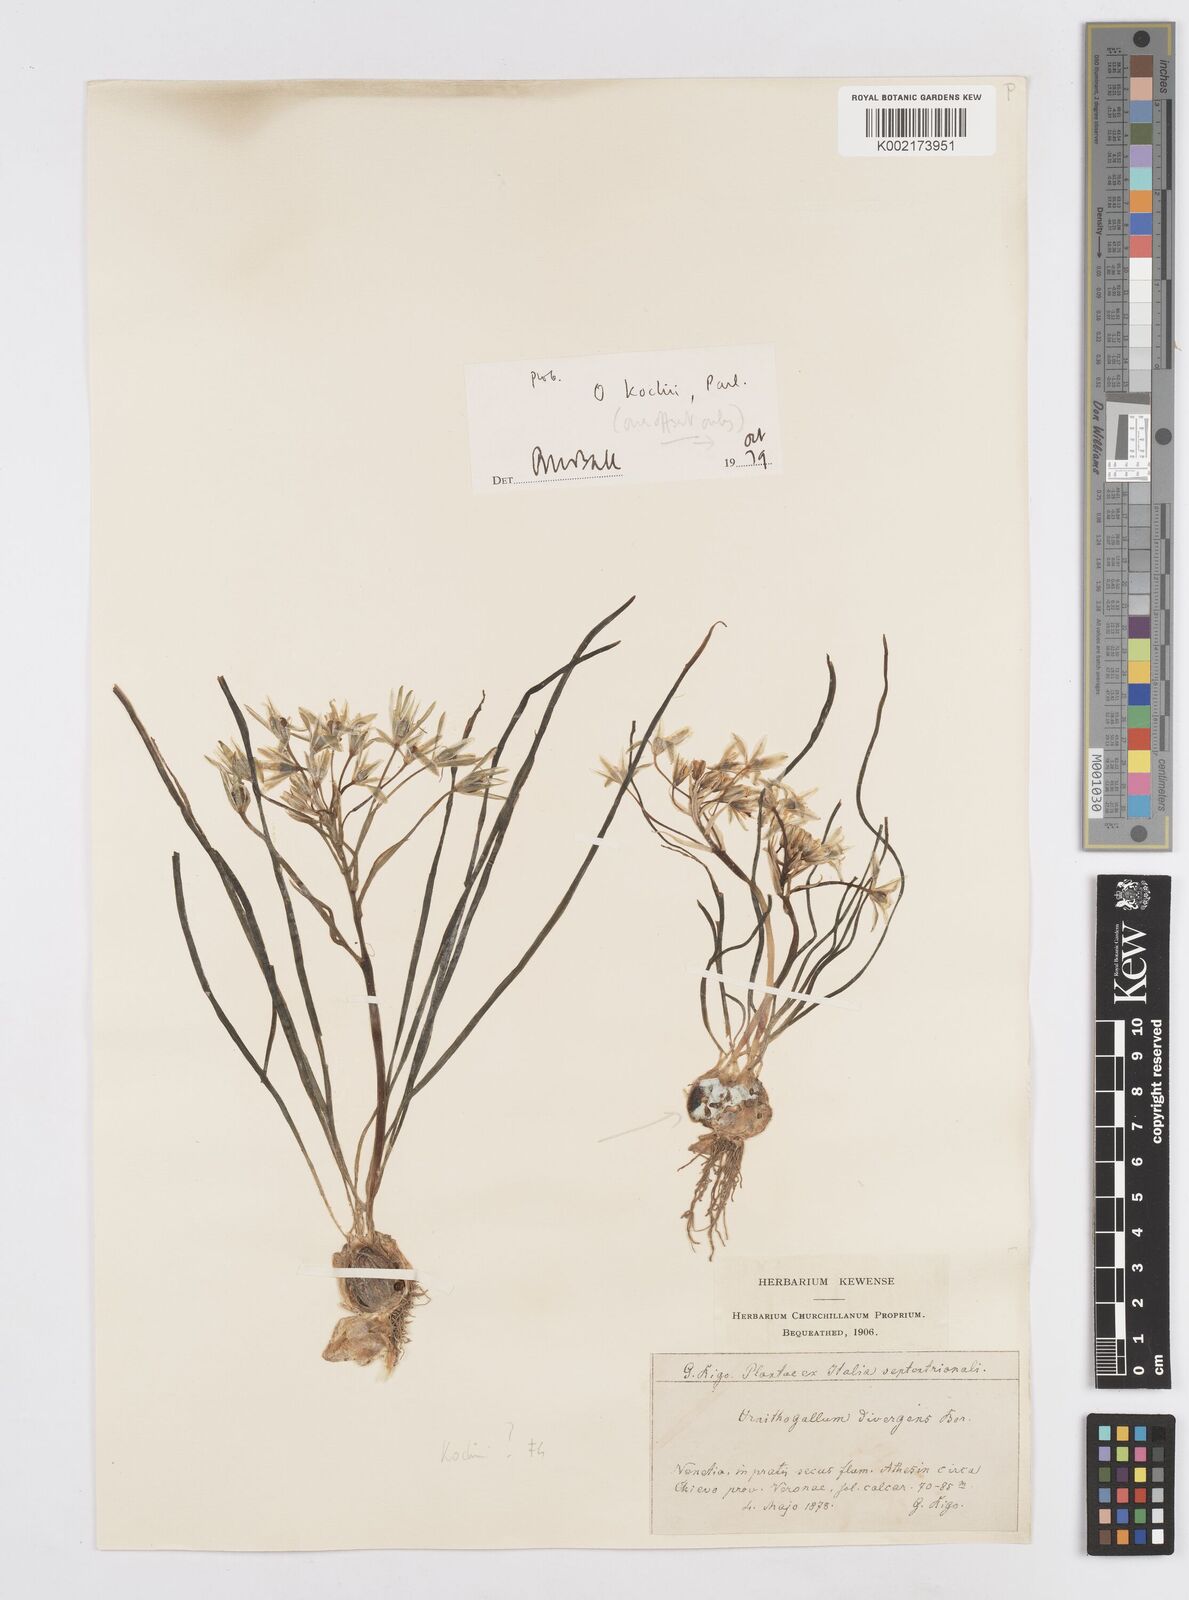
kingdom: Plantae
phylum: Tracheophyta
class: Liliopsida
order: Asparagales
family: Asparagaceae
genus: Ornithogalum
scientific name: Ornithogalum divergens
